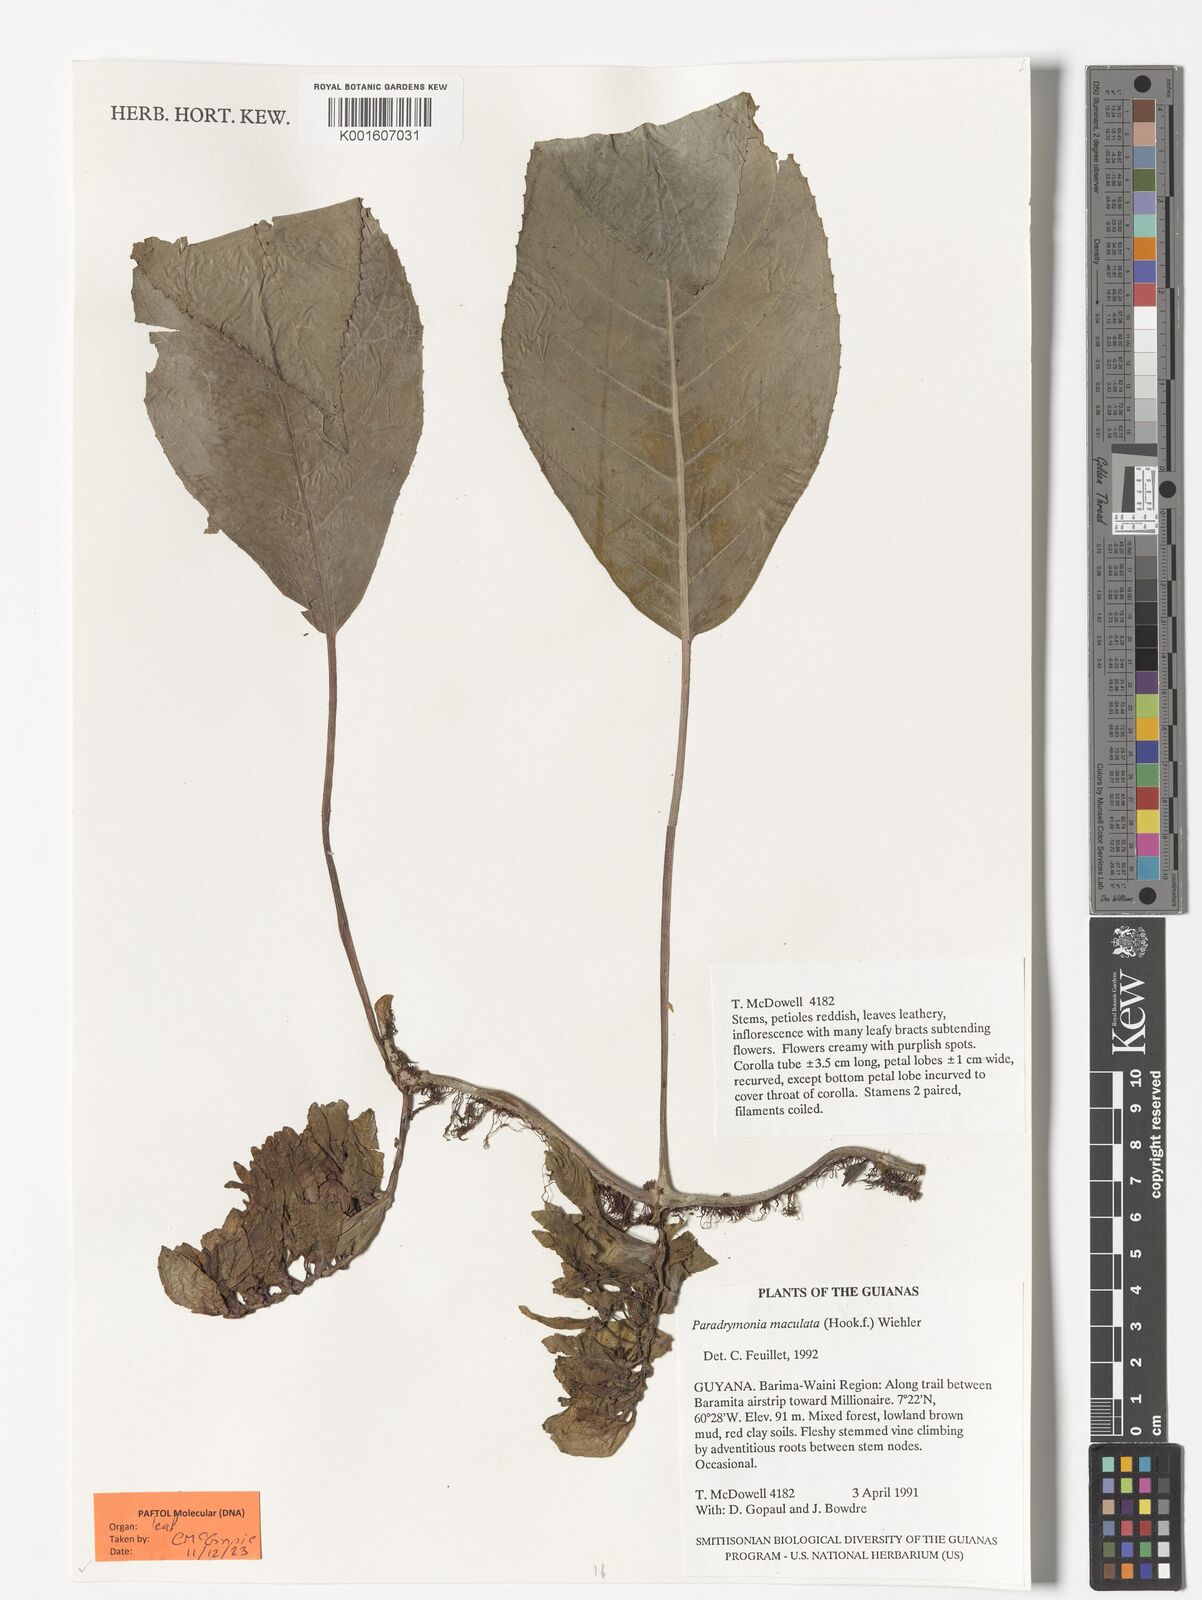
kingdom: Plantae
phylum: Tracheophyta
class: Magnoliopsida
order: Lamiales
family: Gesneriaceae
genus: Pagothyra
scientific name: Pagothyra maculata
